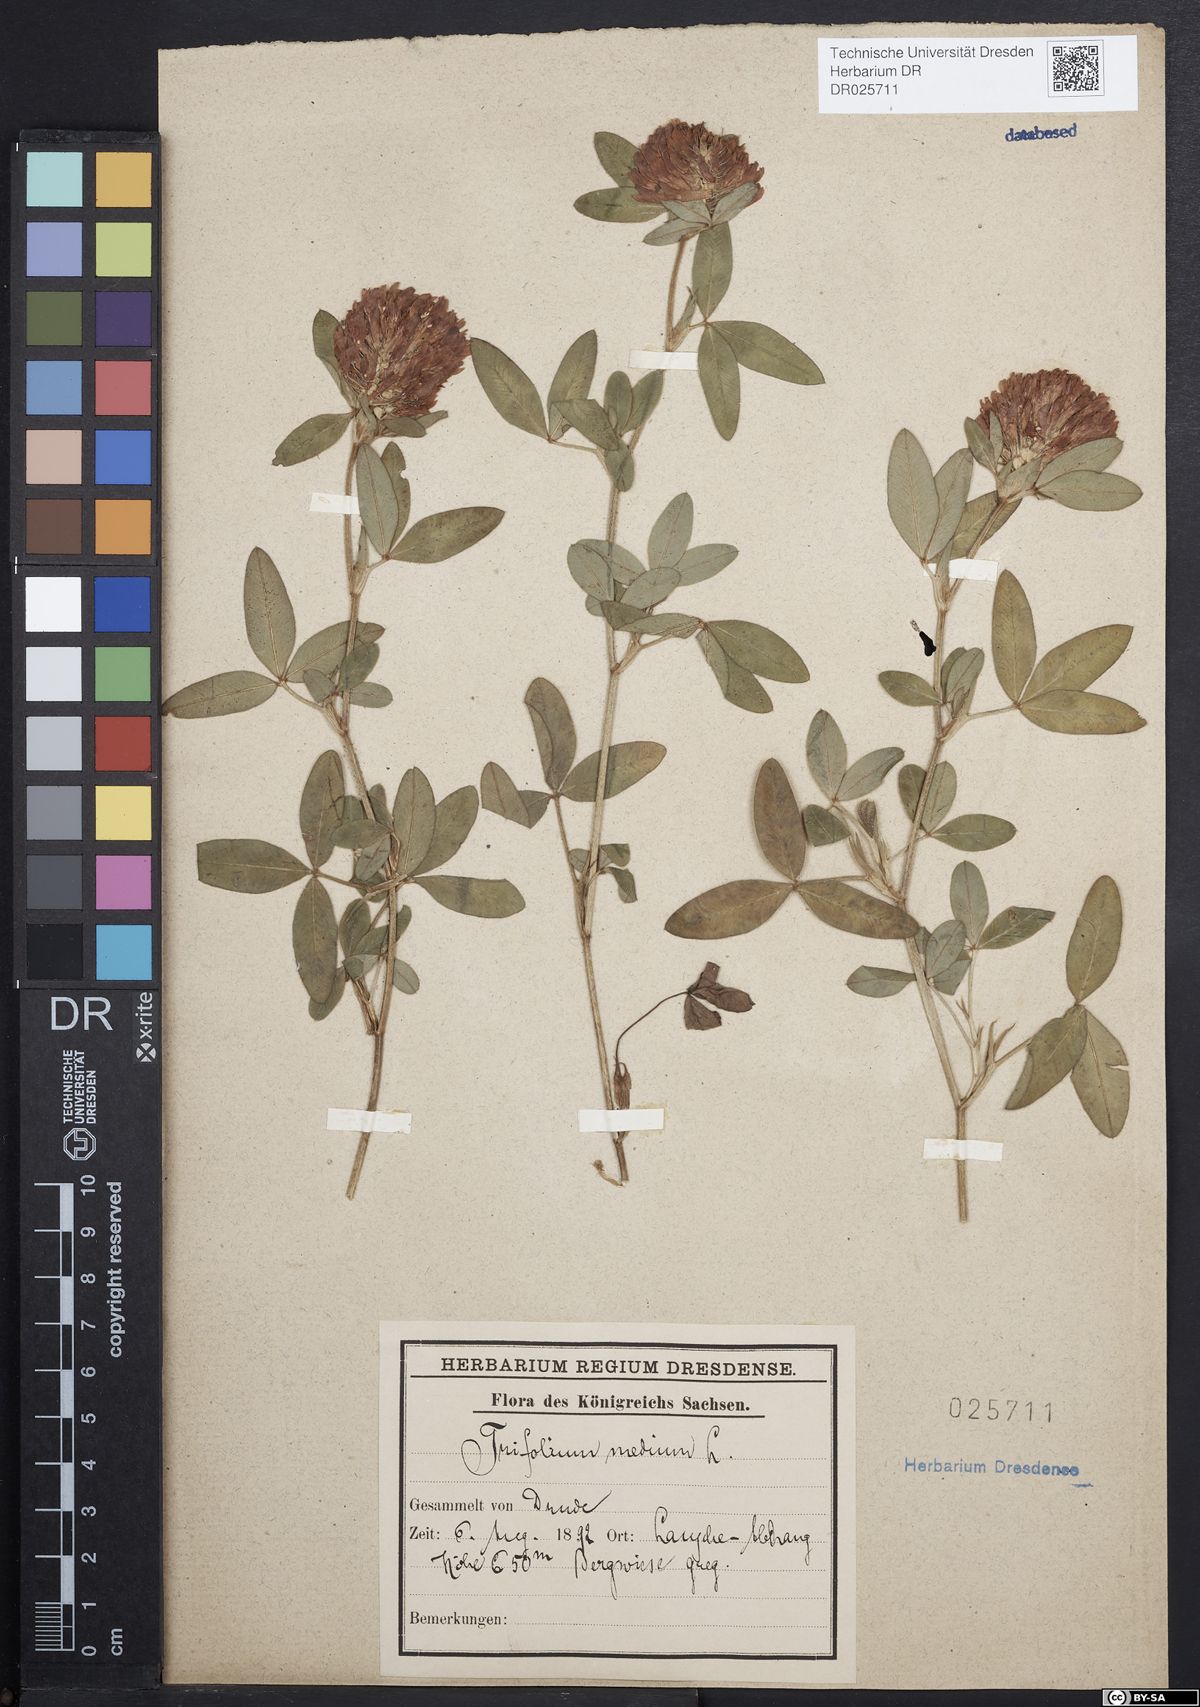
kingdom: Plantae
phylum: Tracheophyta
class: Magnoliopsida
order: Fabales
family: Fabaceae
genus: Trifolium
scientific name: Trifolium medium
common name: Zigzag clover
